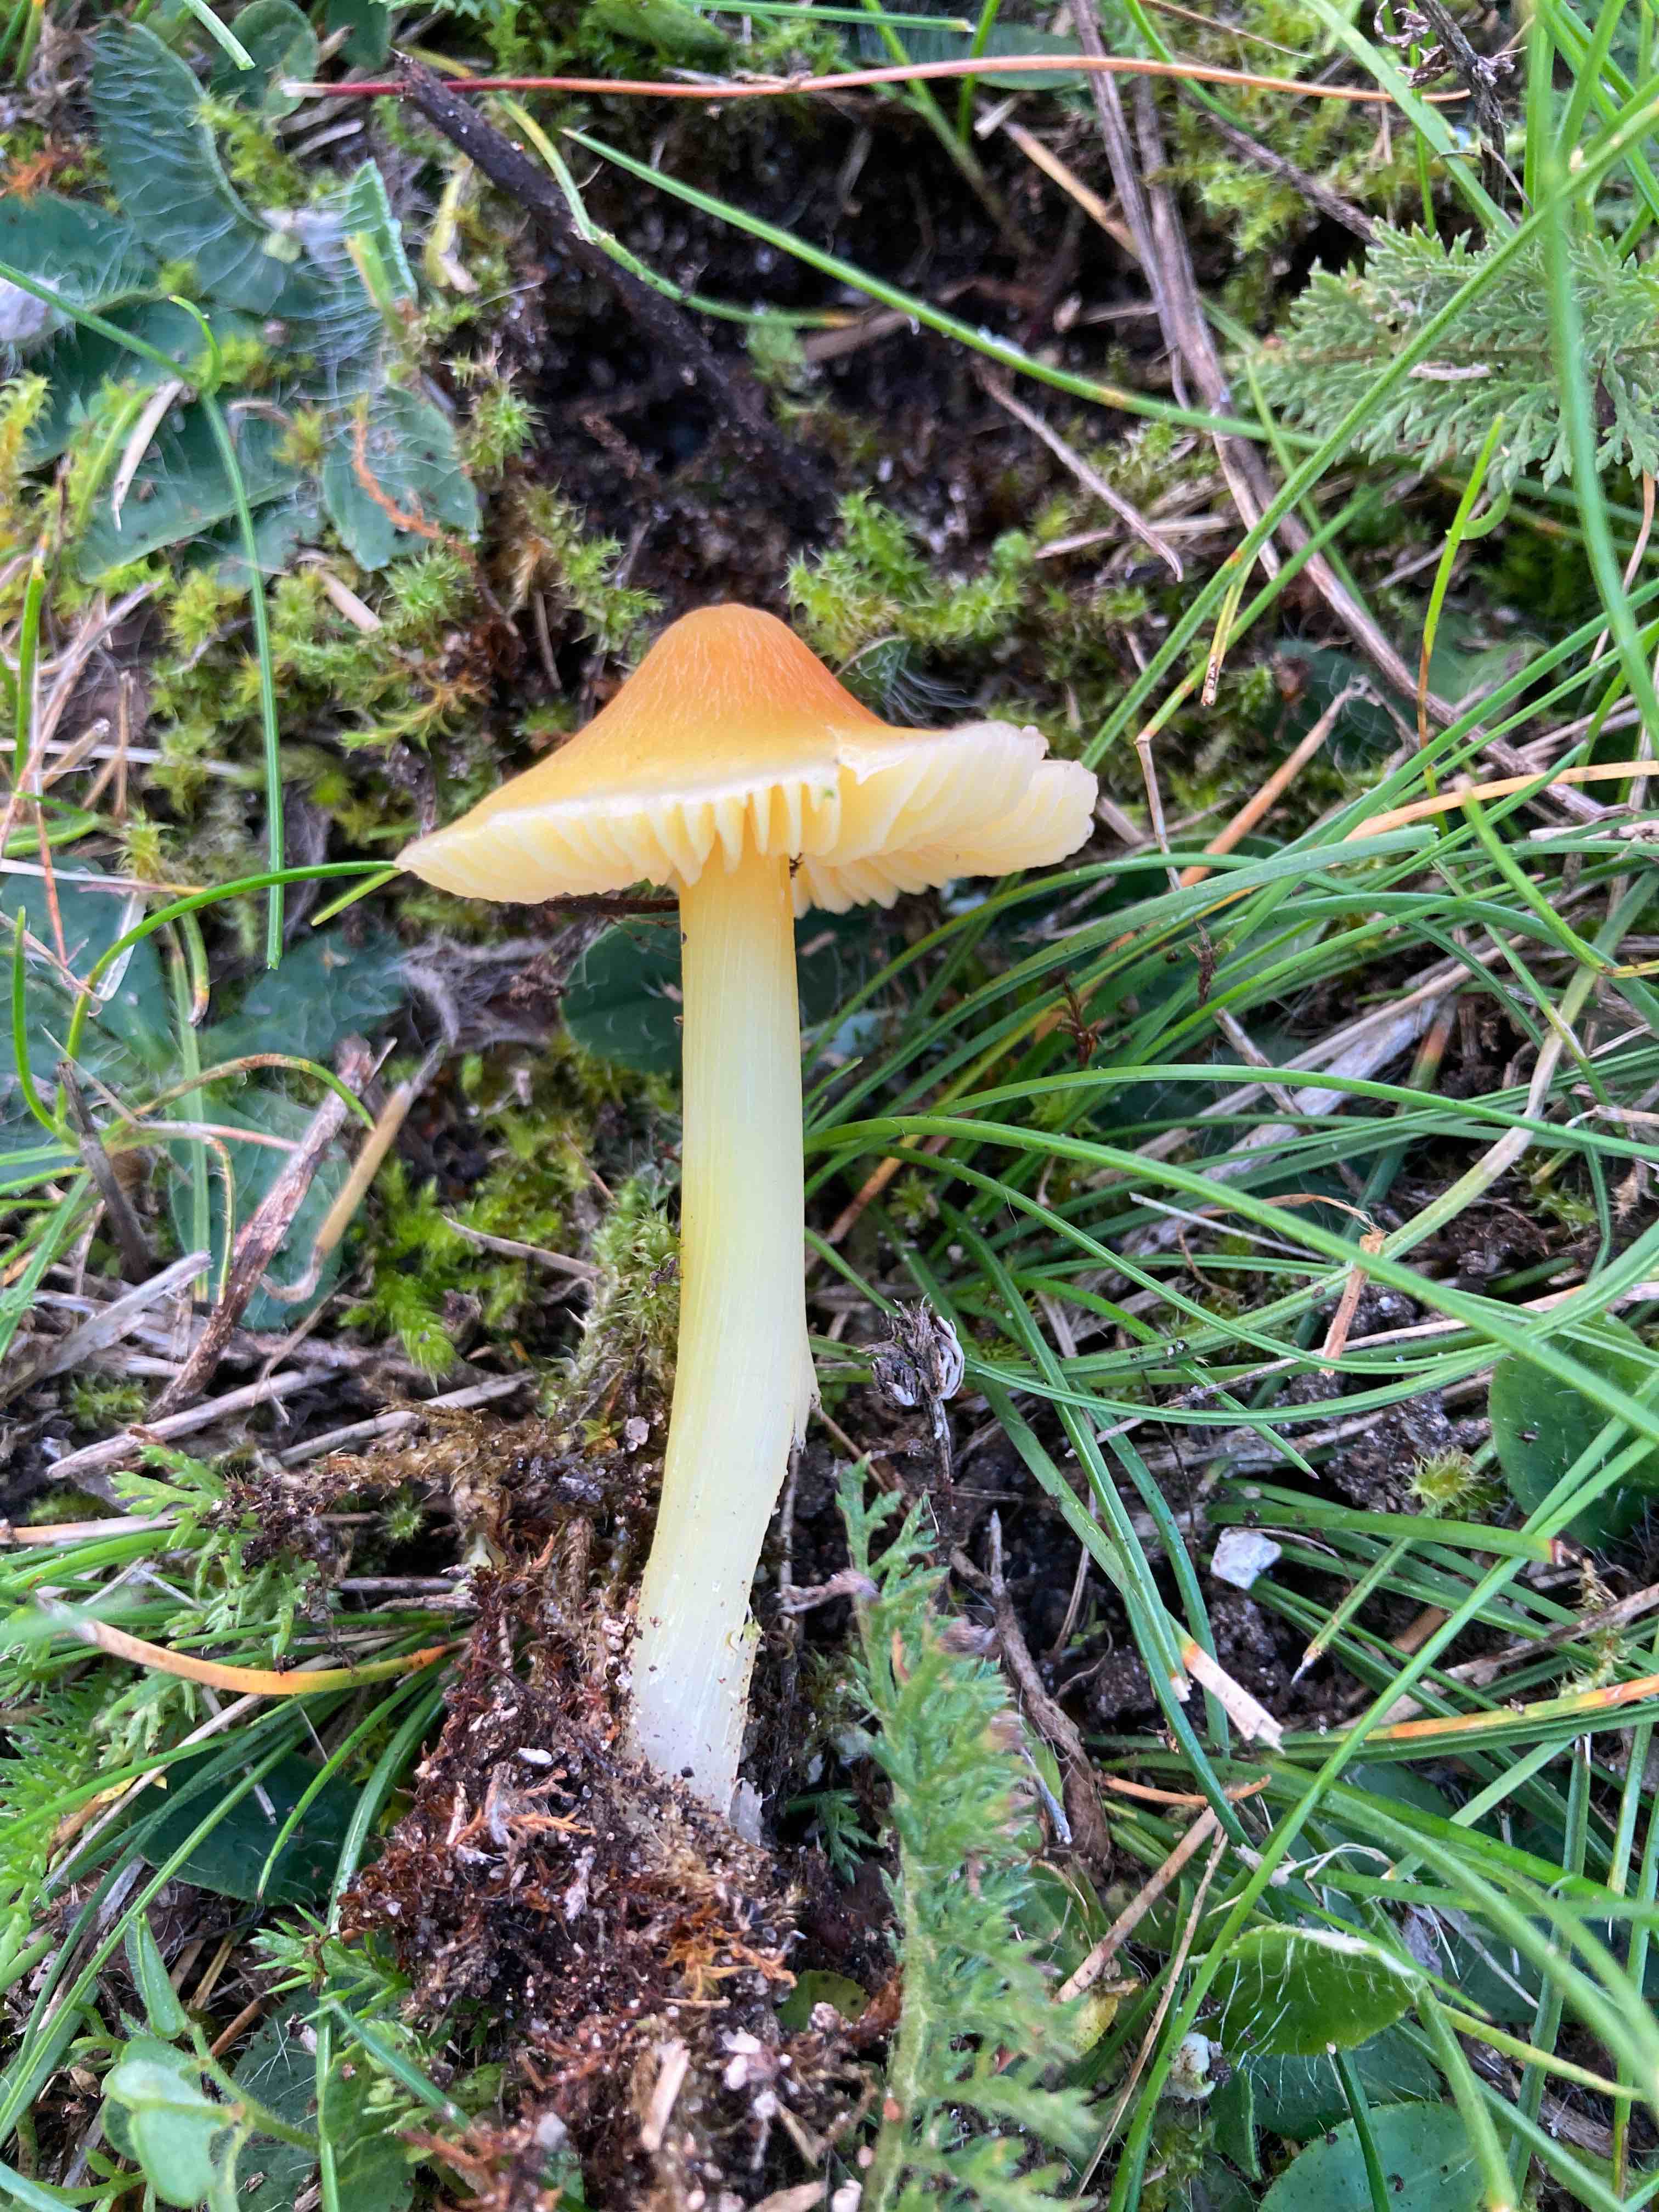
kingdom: Fungi
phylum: Basidiomycota
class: Agaricomycetes
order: Agaricales
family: Hygrophoraceae
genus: Hygrocybe
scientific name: Hygrocybe acutoconica
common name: spidspuklet vokshat
